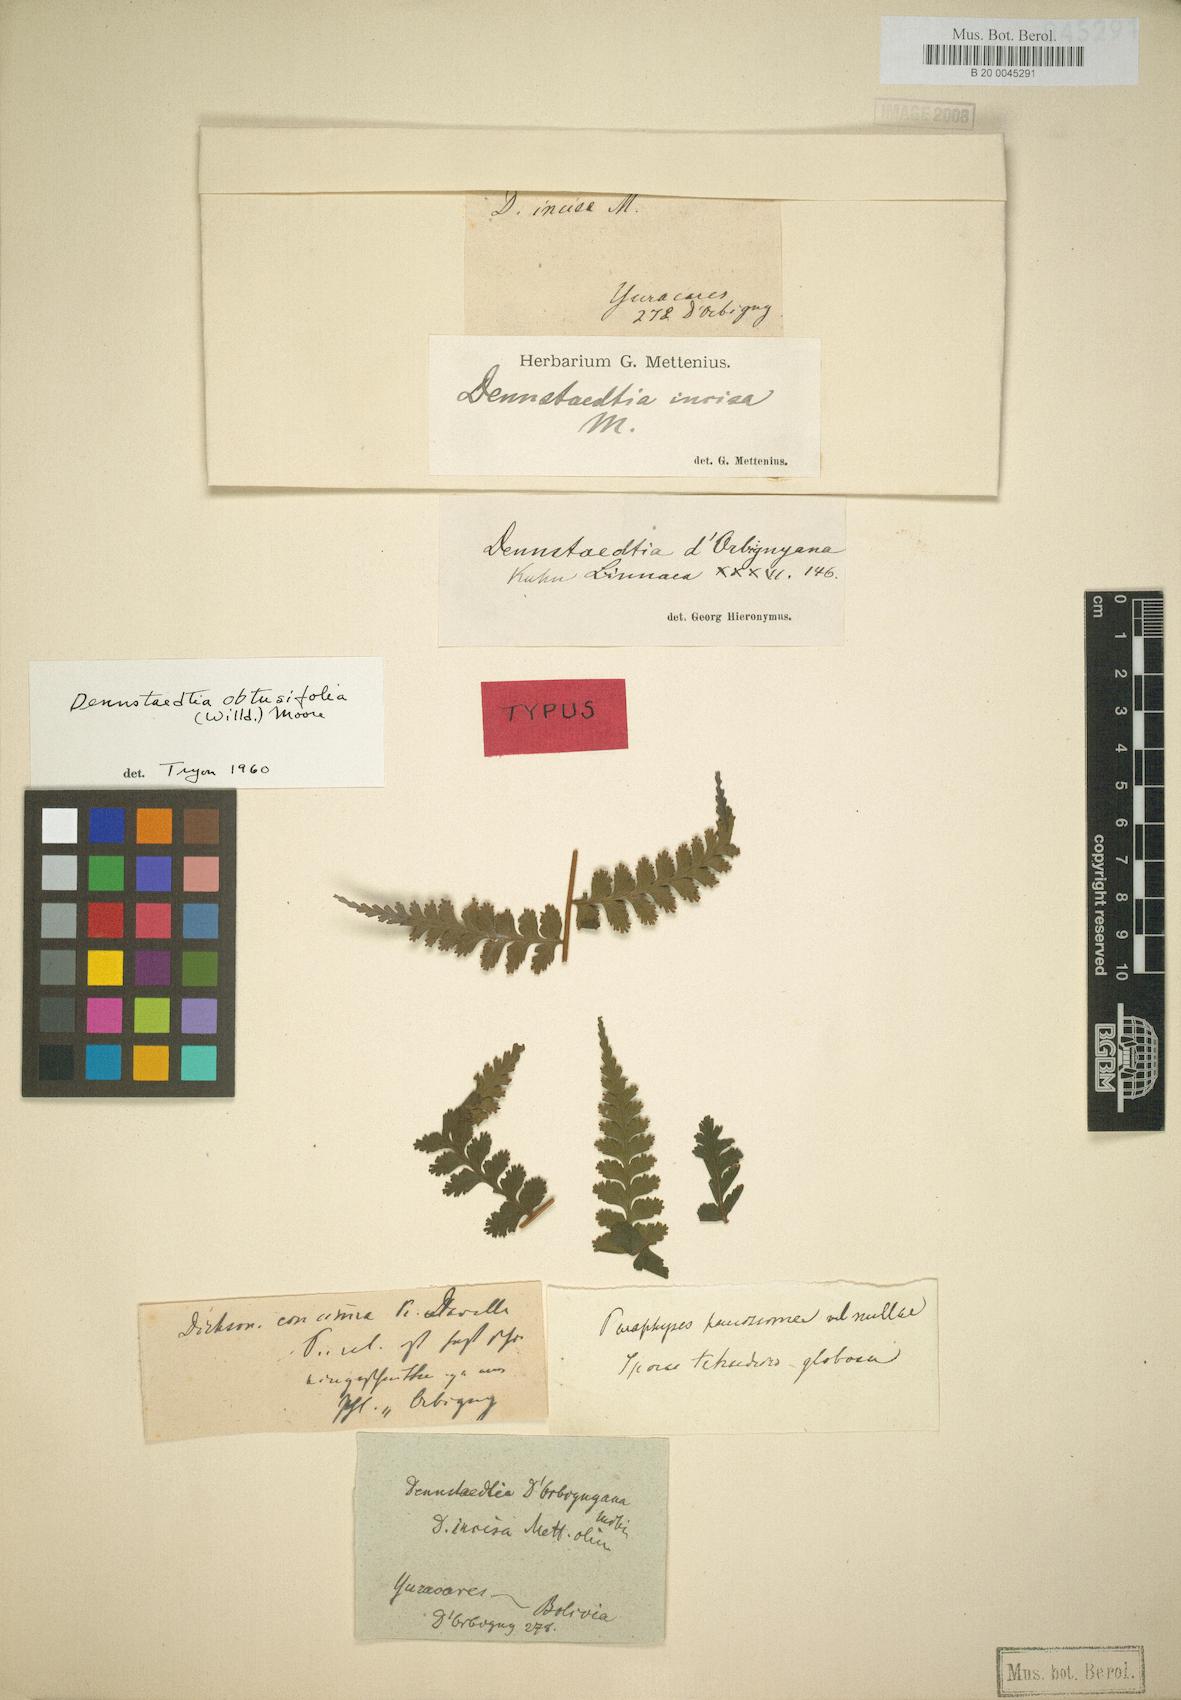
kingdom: Plantae
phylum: Tracheophyta
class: Polypodiopsida
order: Polypodiales
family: Dennstaedtiaceae
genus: Dennstaedtia
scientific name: Dennstaedtia obtusifolia
